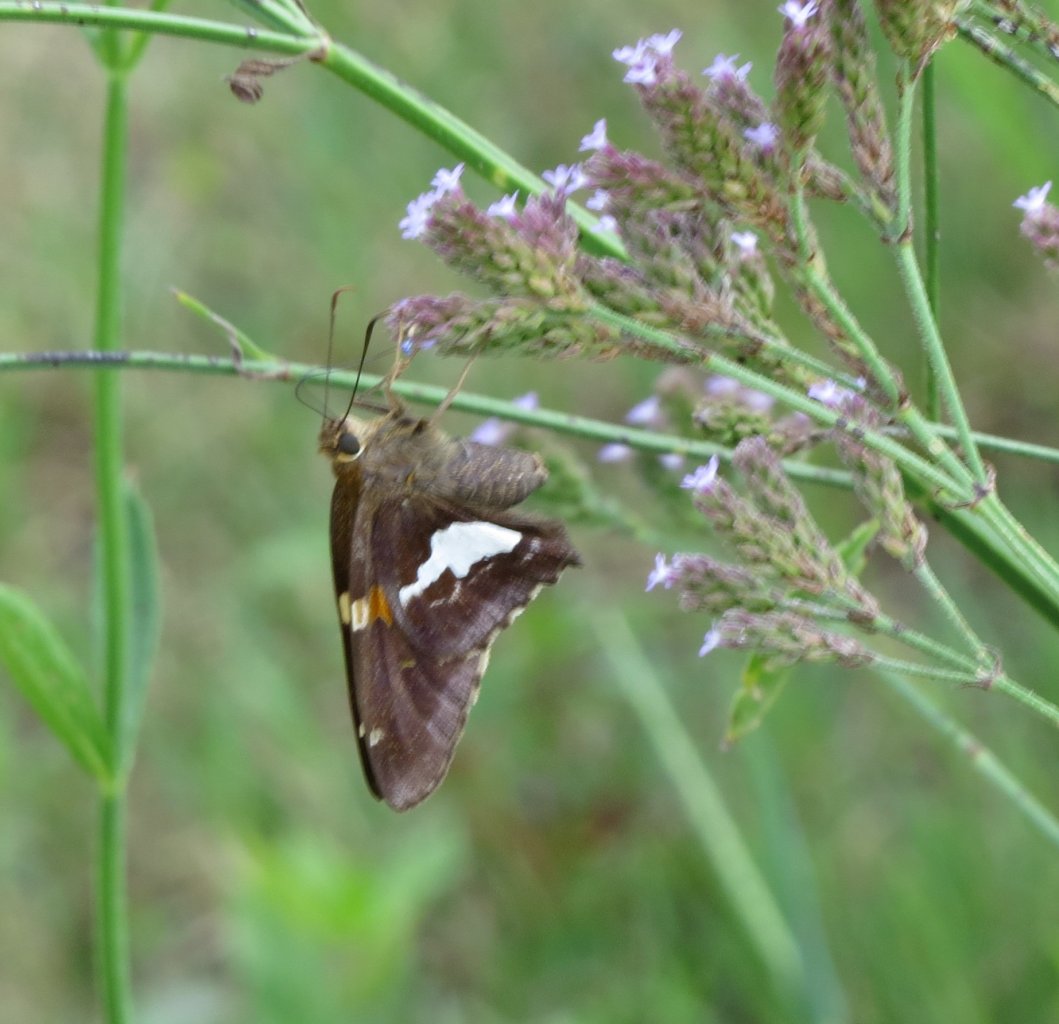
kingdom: Animalia
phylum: Arthropoda
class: Insecta
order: Lepidoptera
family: Hesperiidae
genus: Epargyreus
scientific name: Epargyreus clarus
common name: Silver-spotted Skipper
